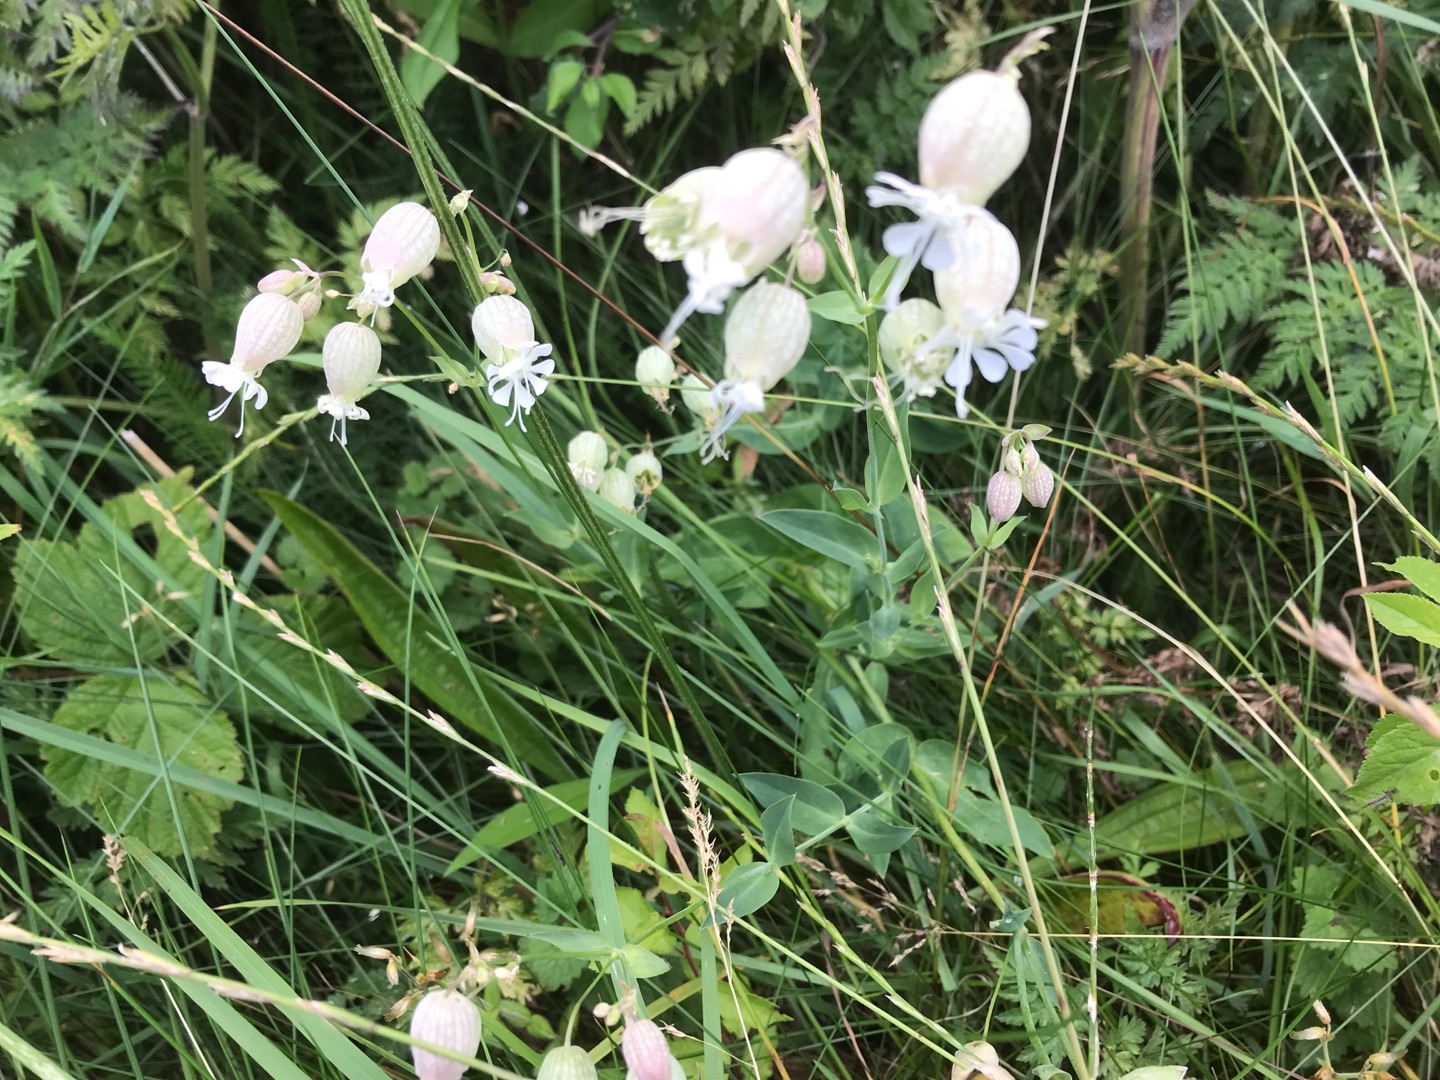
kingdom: Plantae
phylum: Tracheophyta
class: Magnoliopsida
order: Caryophyllales
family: Caryophyllaceae
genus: Silene
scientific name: Silene vulgaris
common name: Blæresmælde
